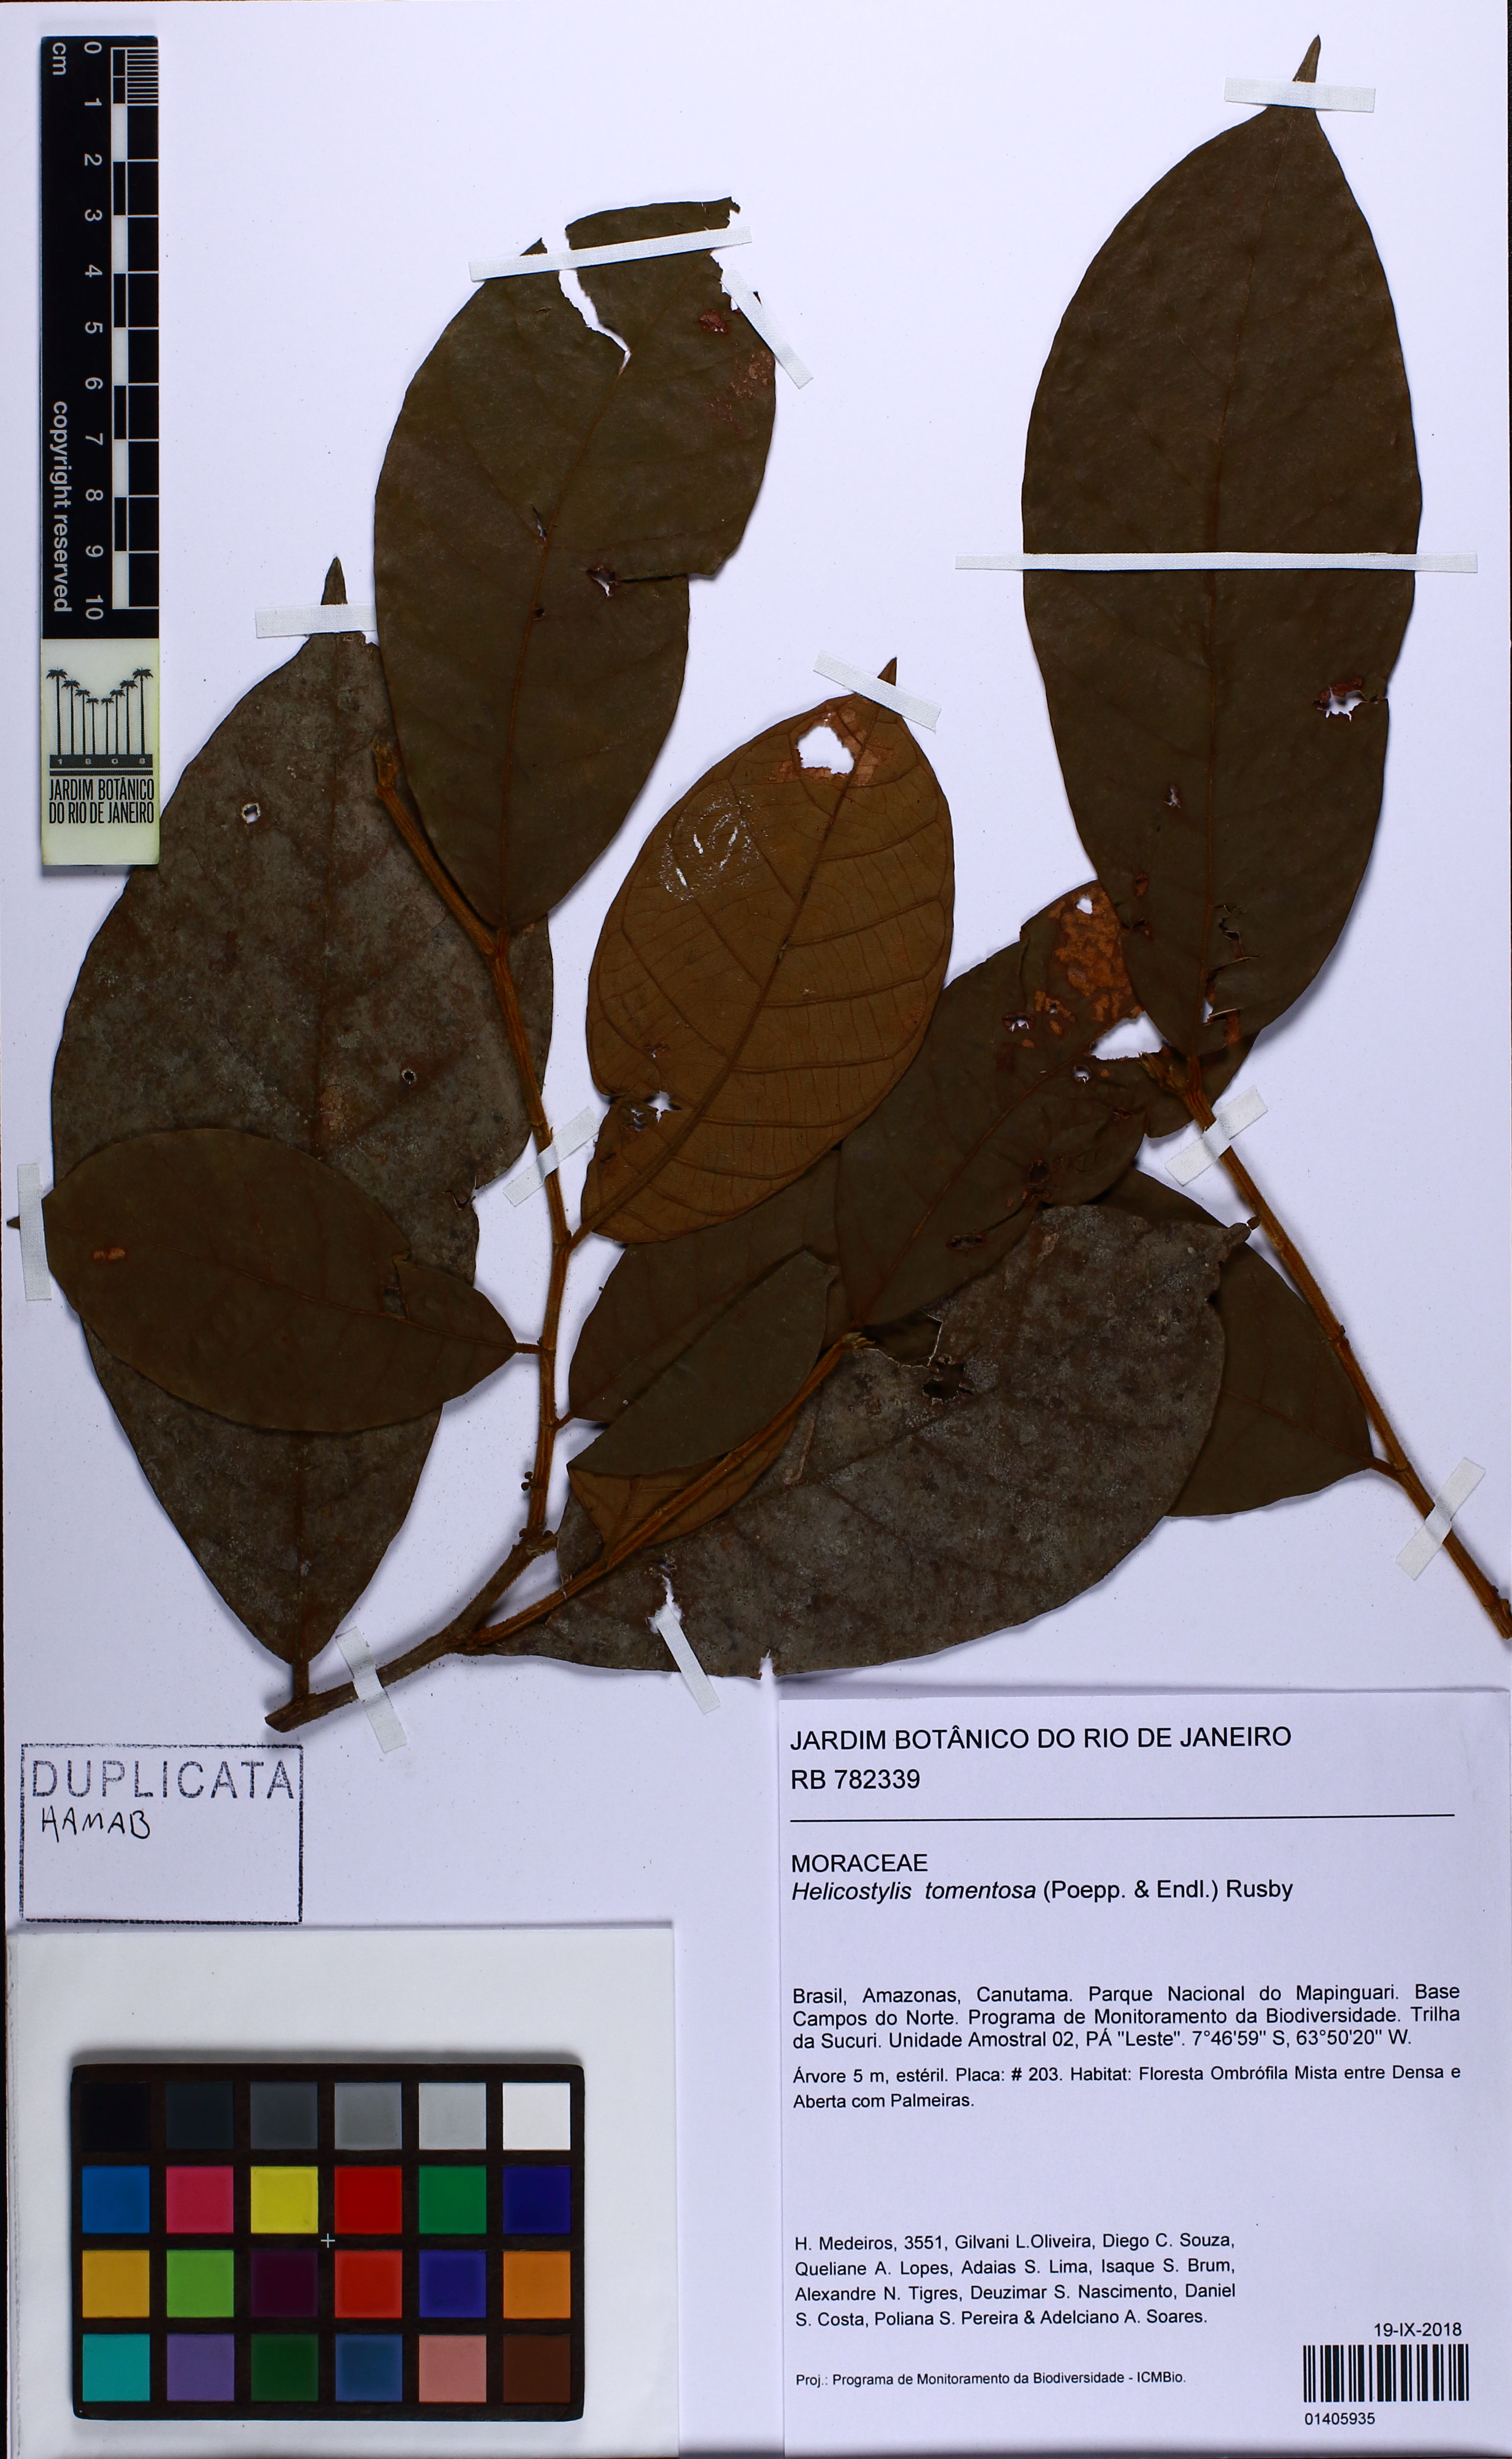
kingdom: Plantae
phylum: Tracheophyta
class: Magnoliopsida
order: Rosales
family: Moraceae
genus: Helicostylis
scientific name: Helicostylis tomentosa
